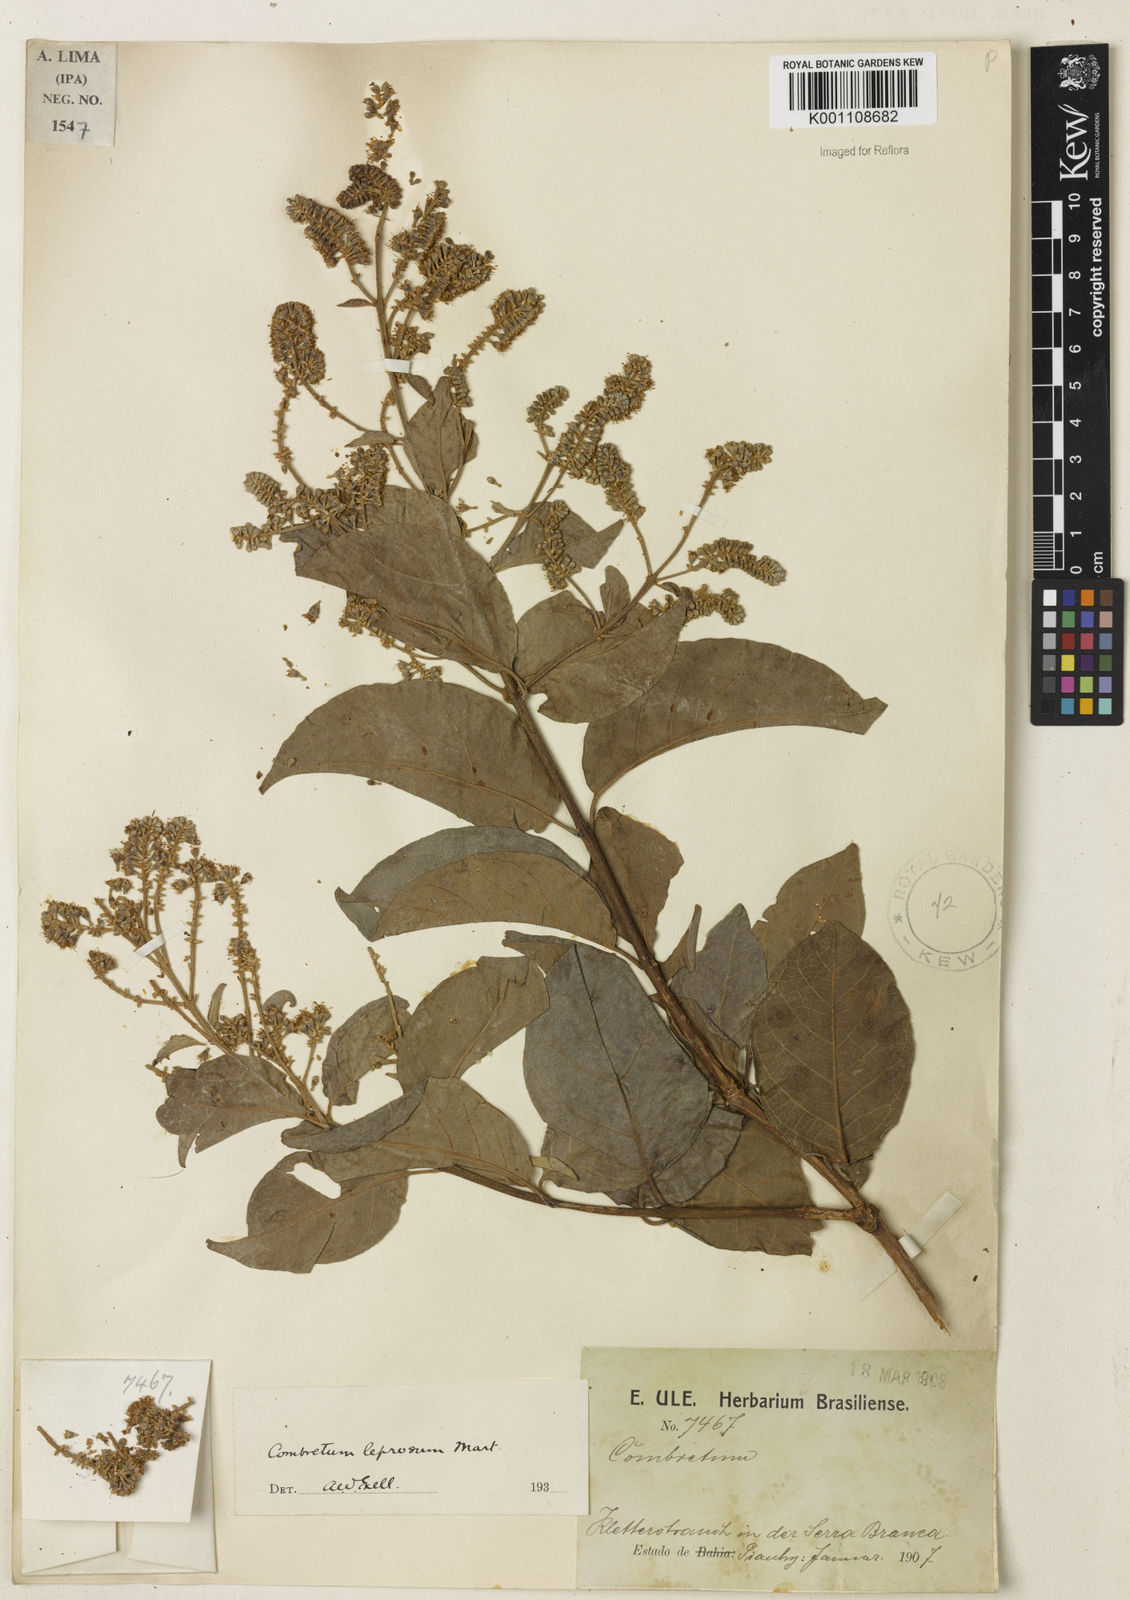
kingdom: Plantae
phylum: Tracheophyta
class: Magnoliopsida
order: Myrtales
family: Combretaceae
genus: Combretum
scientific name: Combretum leprosum
